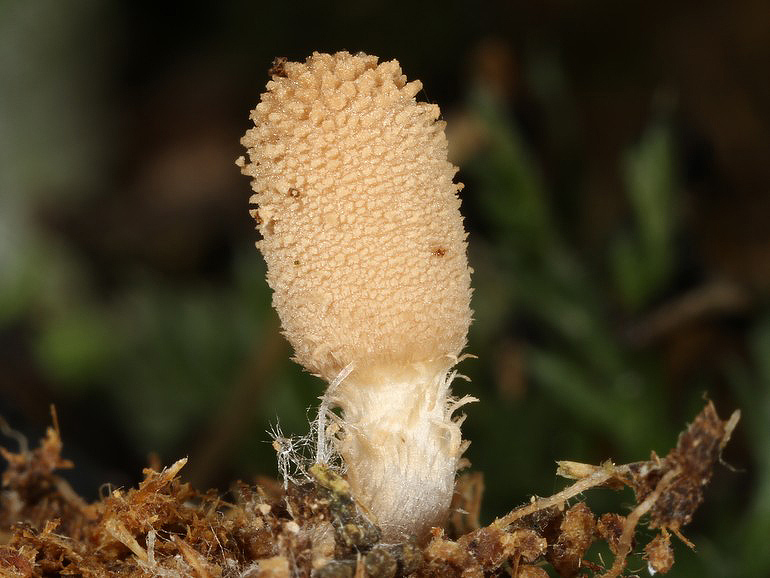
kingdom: Fungi
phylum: Basidiomycota
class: Agaricomycetes
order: Agaricales
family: Psathyrellaceae
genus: Narcissea
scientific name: Narcissea ephemeroides
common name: ring-blækhat
